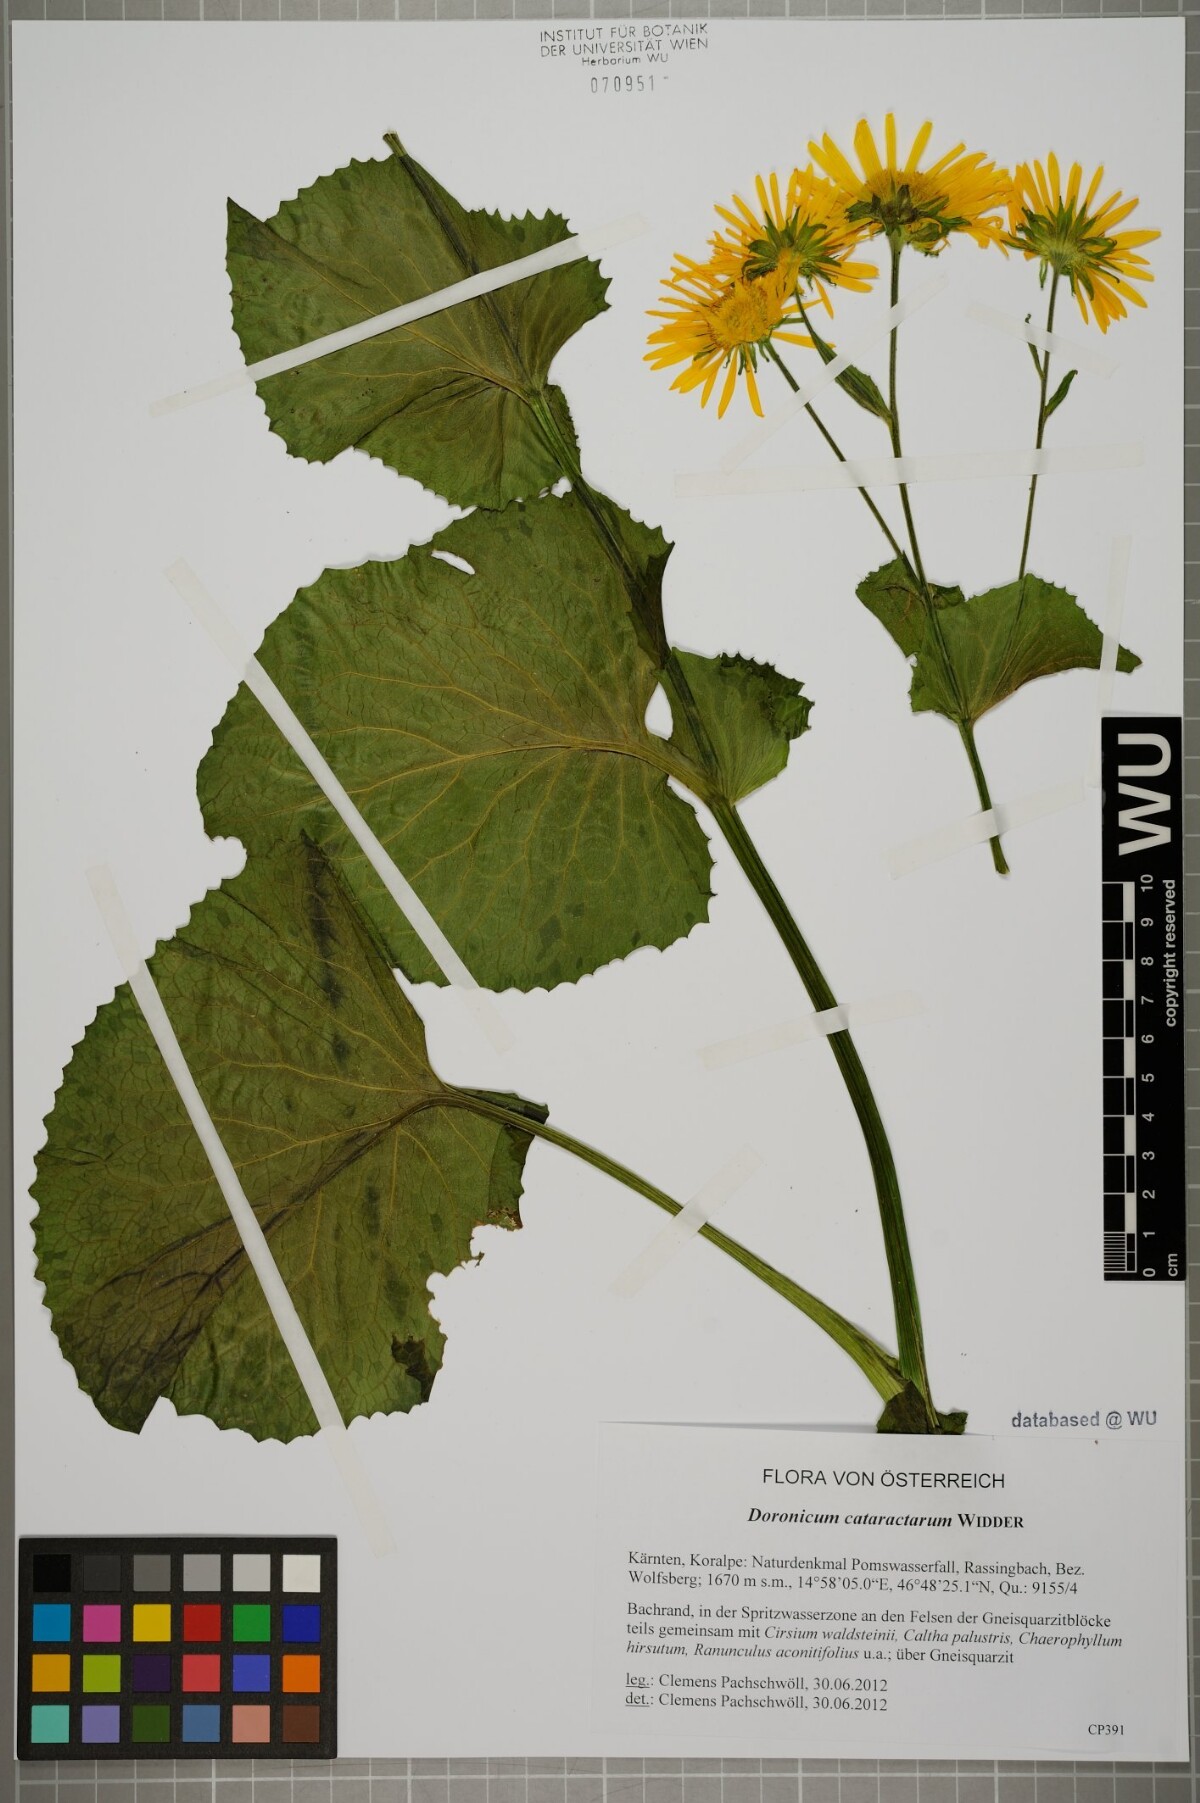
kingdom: Plantae
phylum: Tracheophyta
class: Magnoliopsida
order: Asterales
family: Asteraceae
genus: Doronicum
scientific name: Doronicum cataractarum
